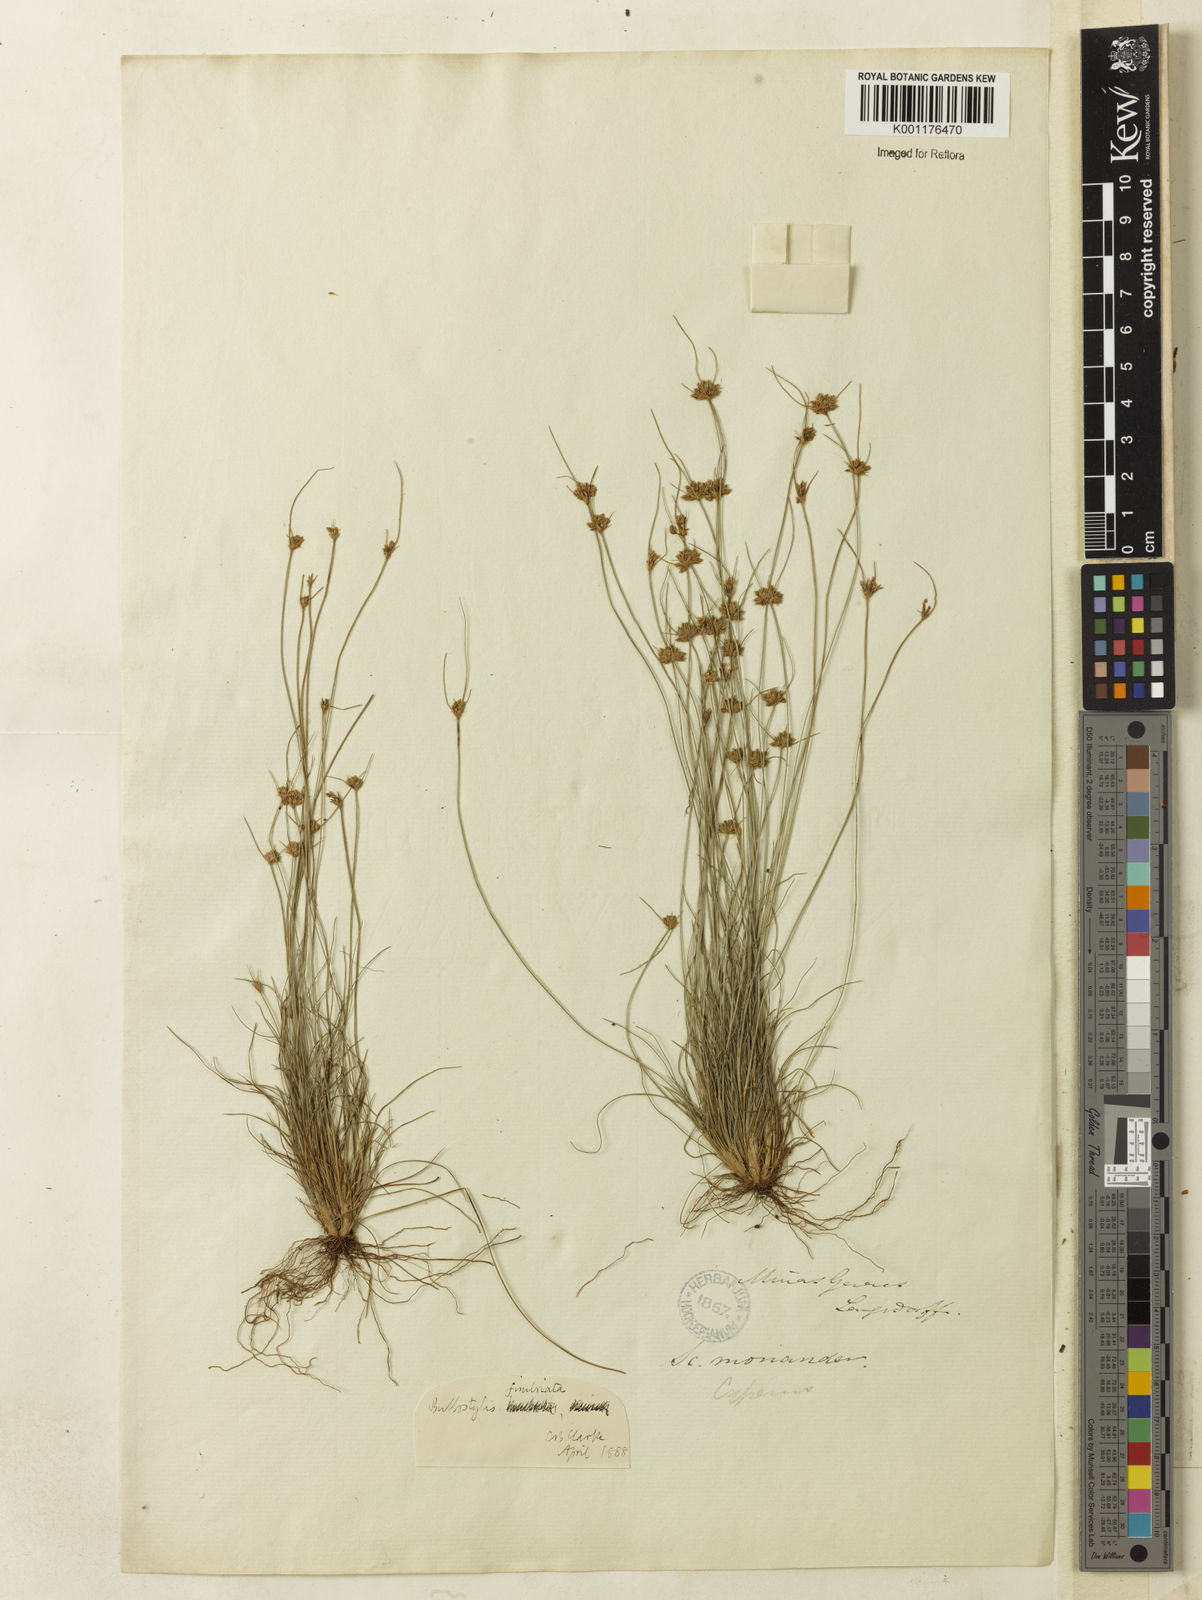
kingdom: Plantae
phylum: Tracheophyta
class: Liliopsida
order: Poales
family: Cyperaceae
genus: Bulbostylis
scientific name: Bulbostylis fimbriata
